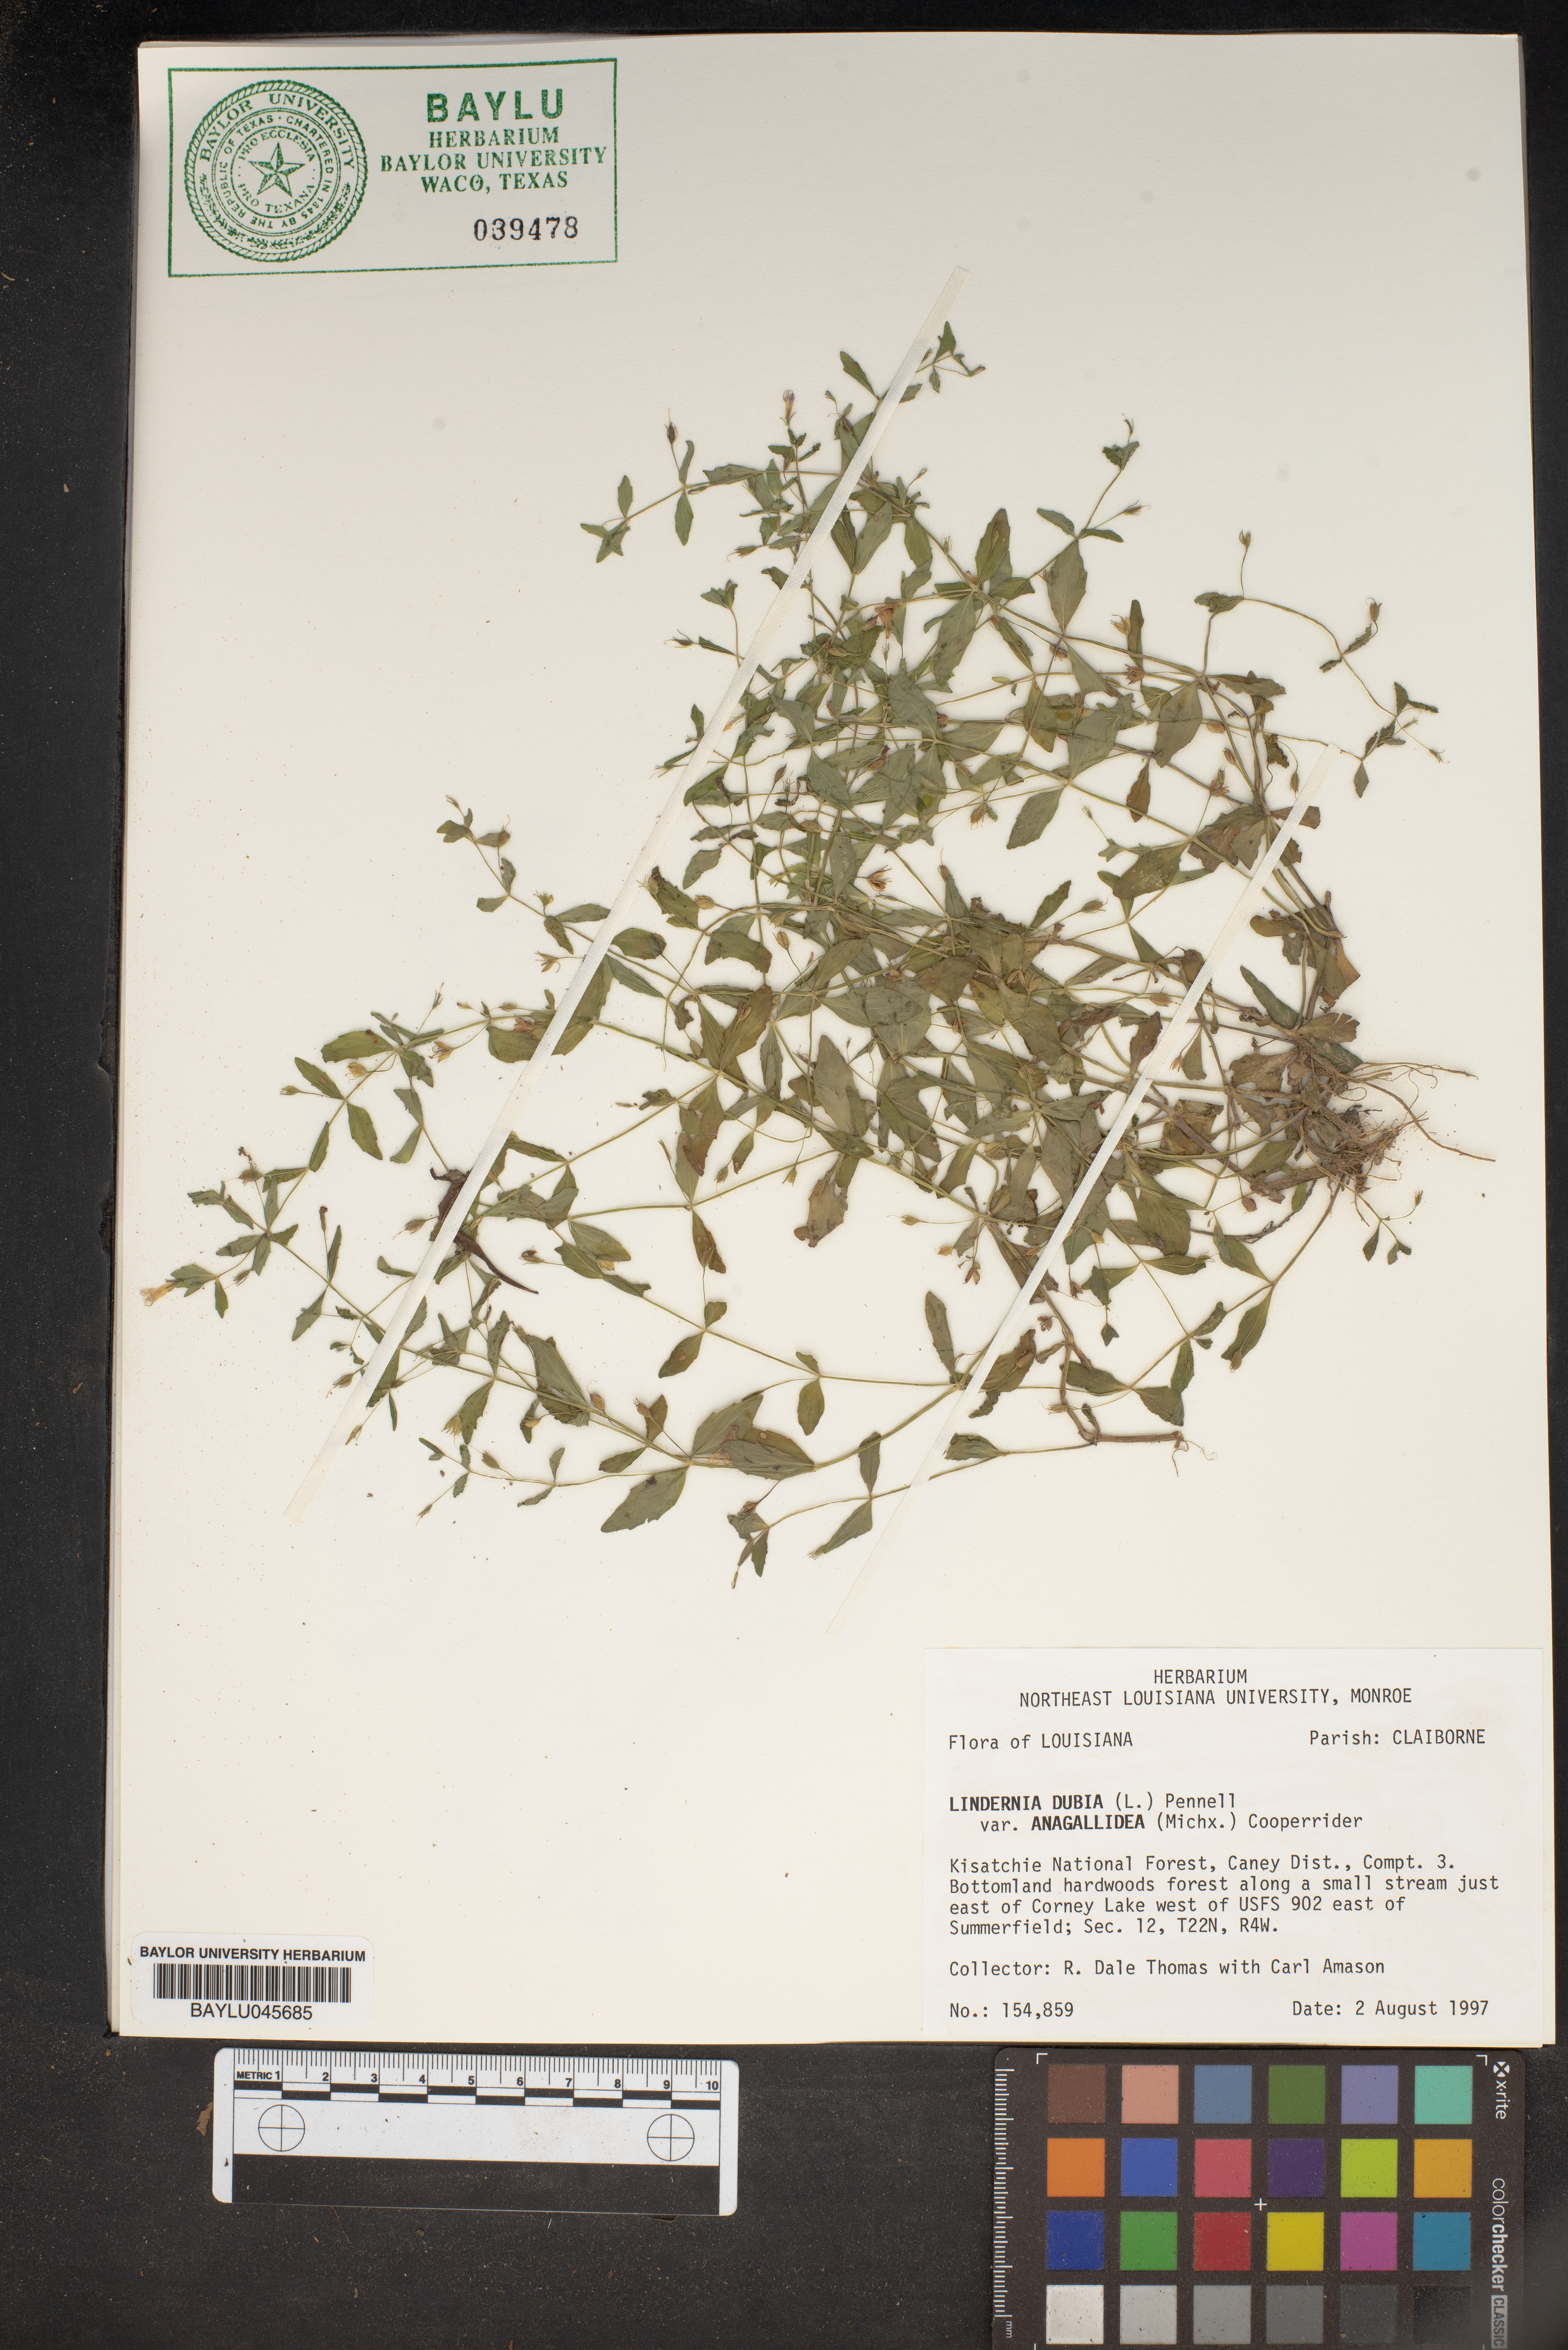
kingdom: Plantae
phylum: Tracheophyta
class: Magnoliopsida
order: Lamiales
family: Linderniaceae
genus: Lindernia
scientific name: Lindernia dubia
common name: Annual false pimpernel
